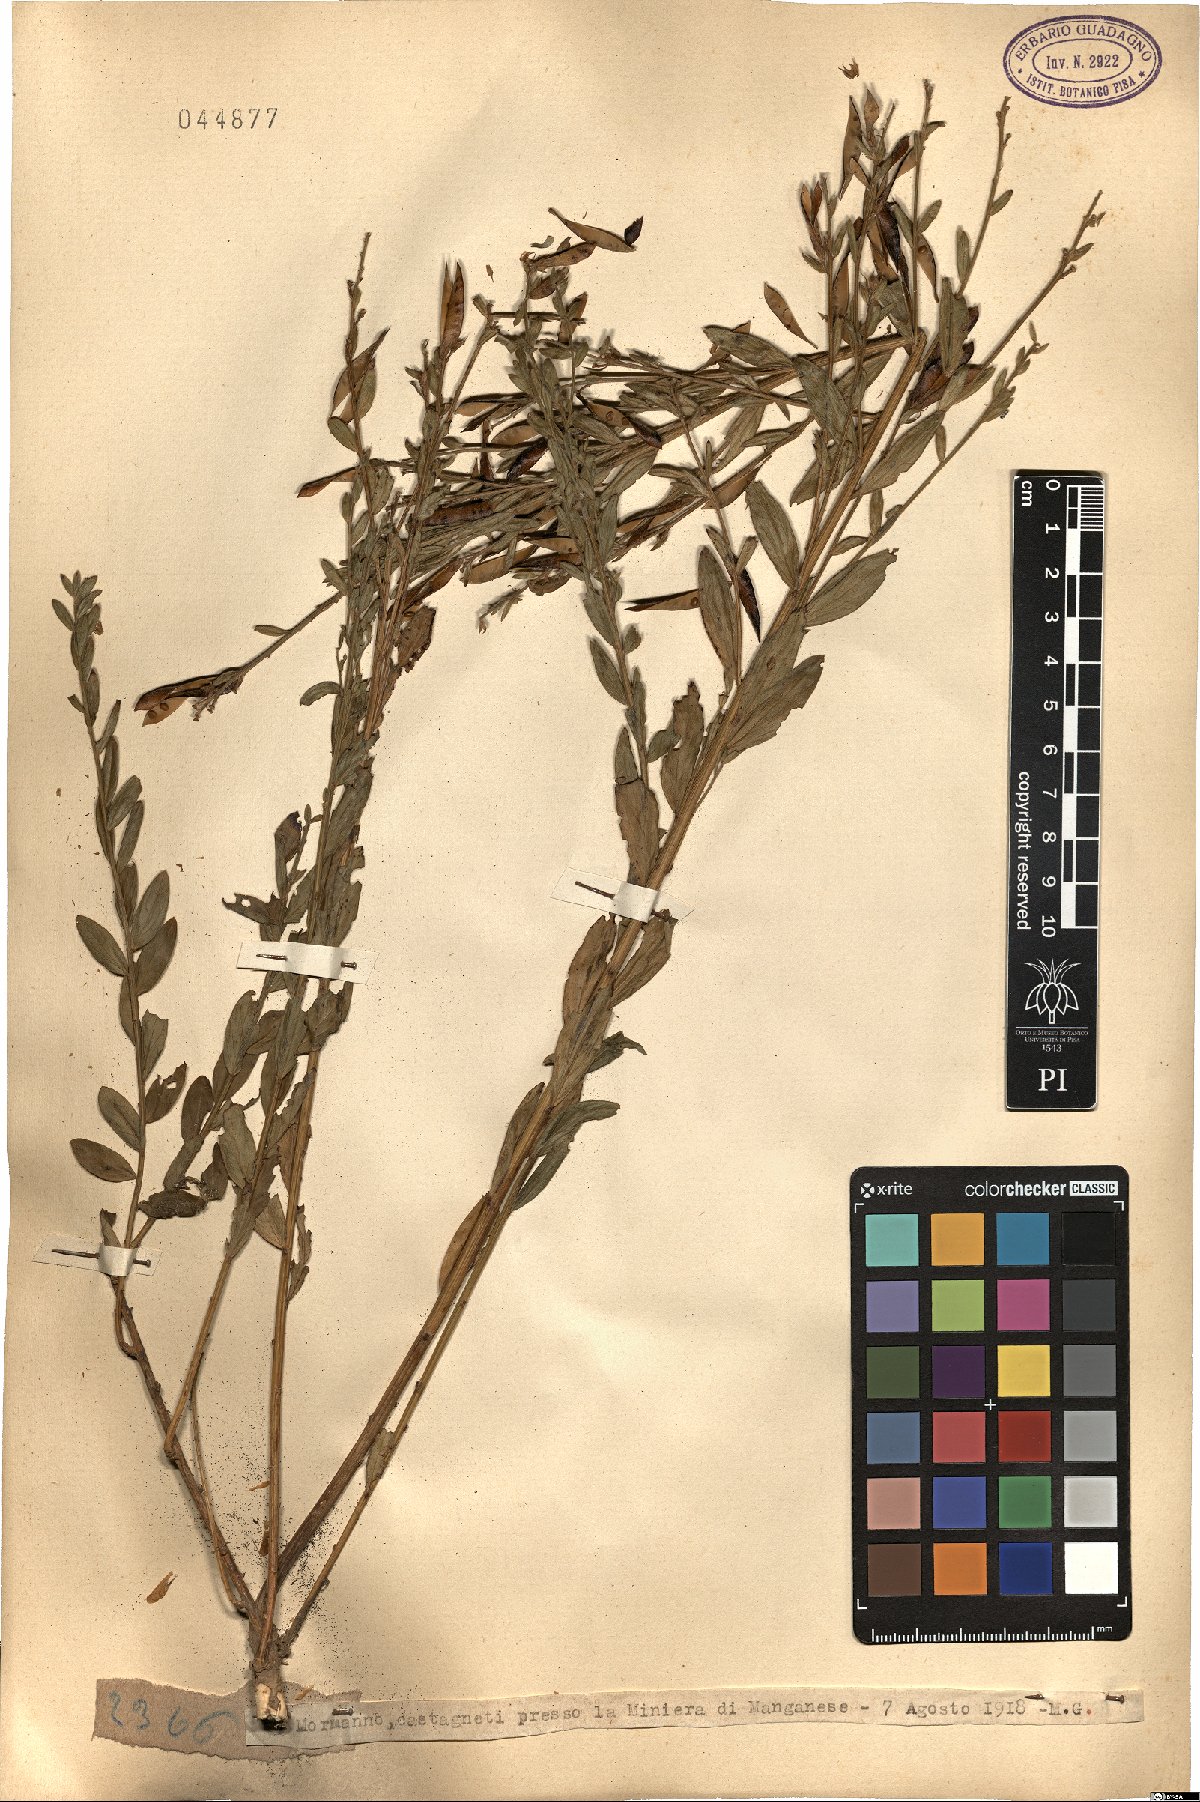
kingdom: Plantae
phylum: Tracheophyta
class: Magnoliopsida
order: Fabales
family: Fabaceae
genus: Genista
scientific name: Genista
